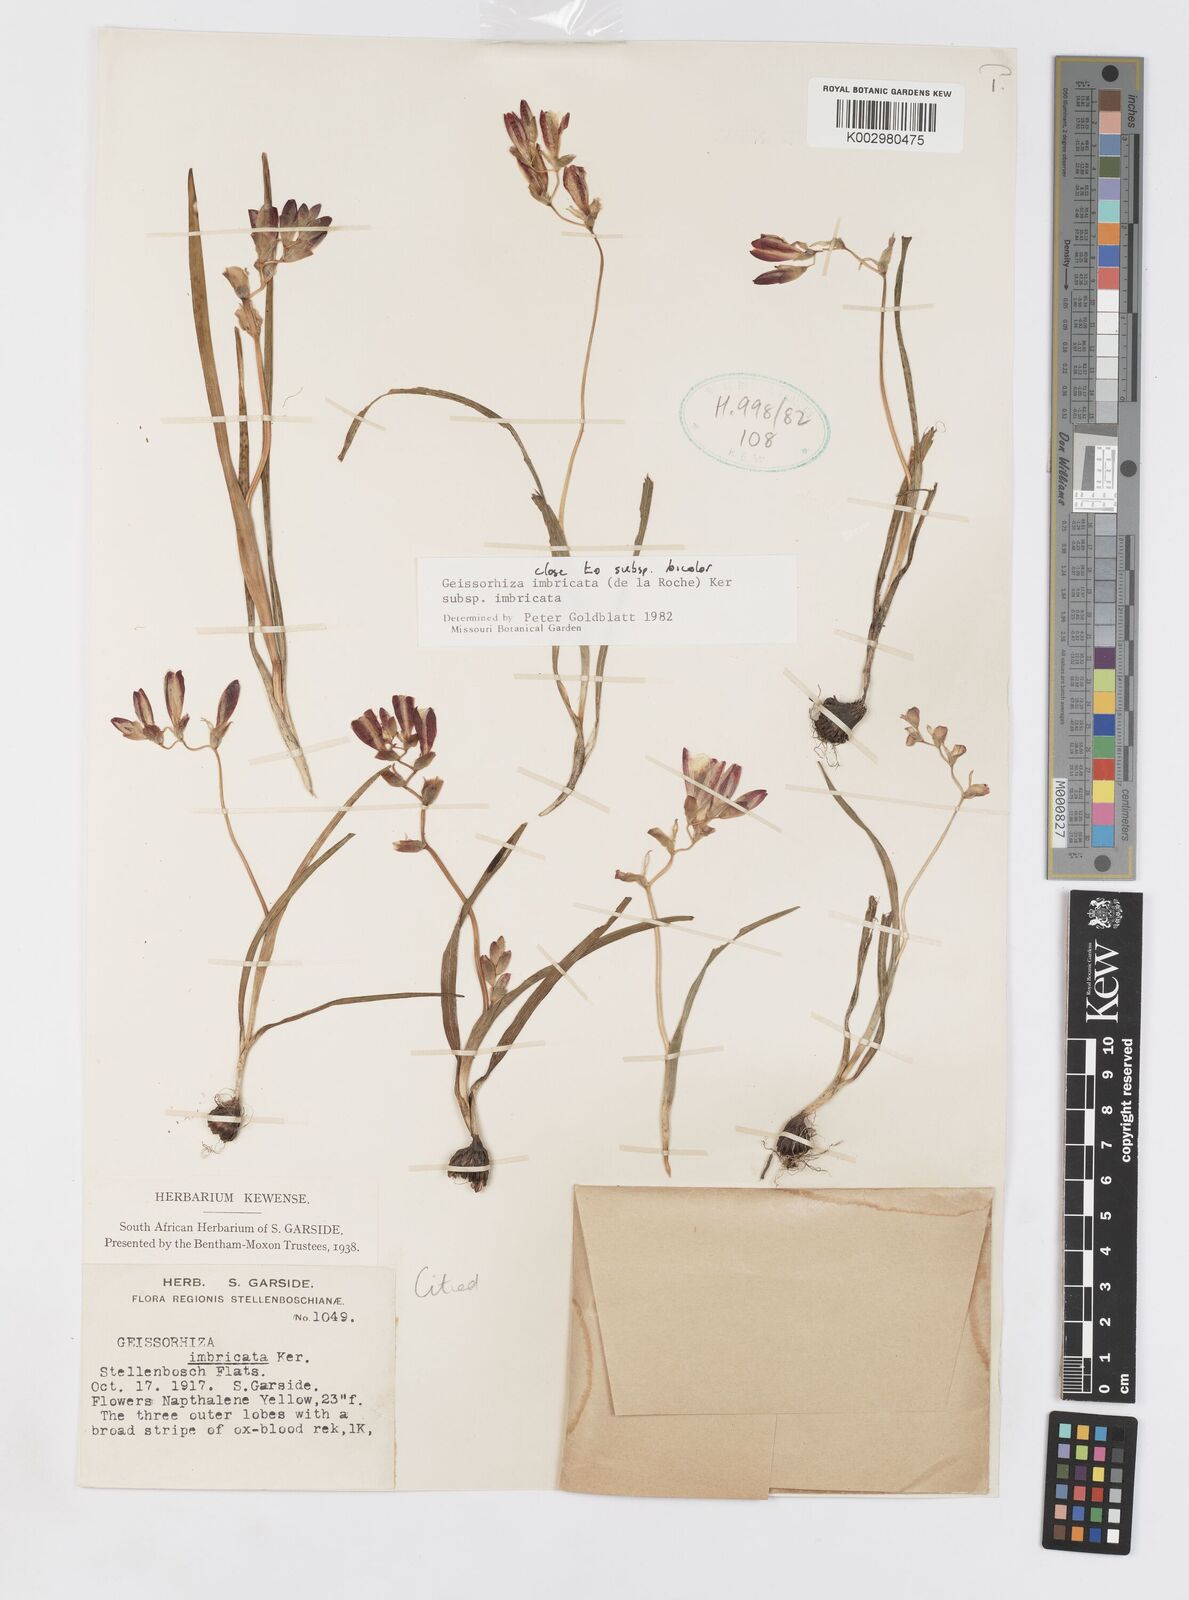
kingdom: Plantae
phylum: Tracheophyta
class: Liliopsida
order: Asparagales
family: Iridaceae
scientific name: Iridaceae
